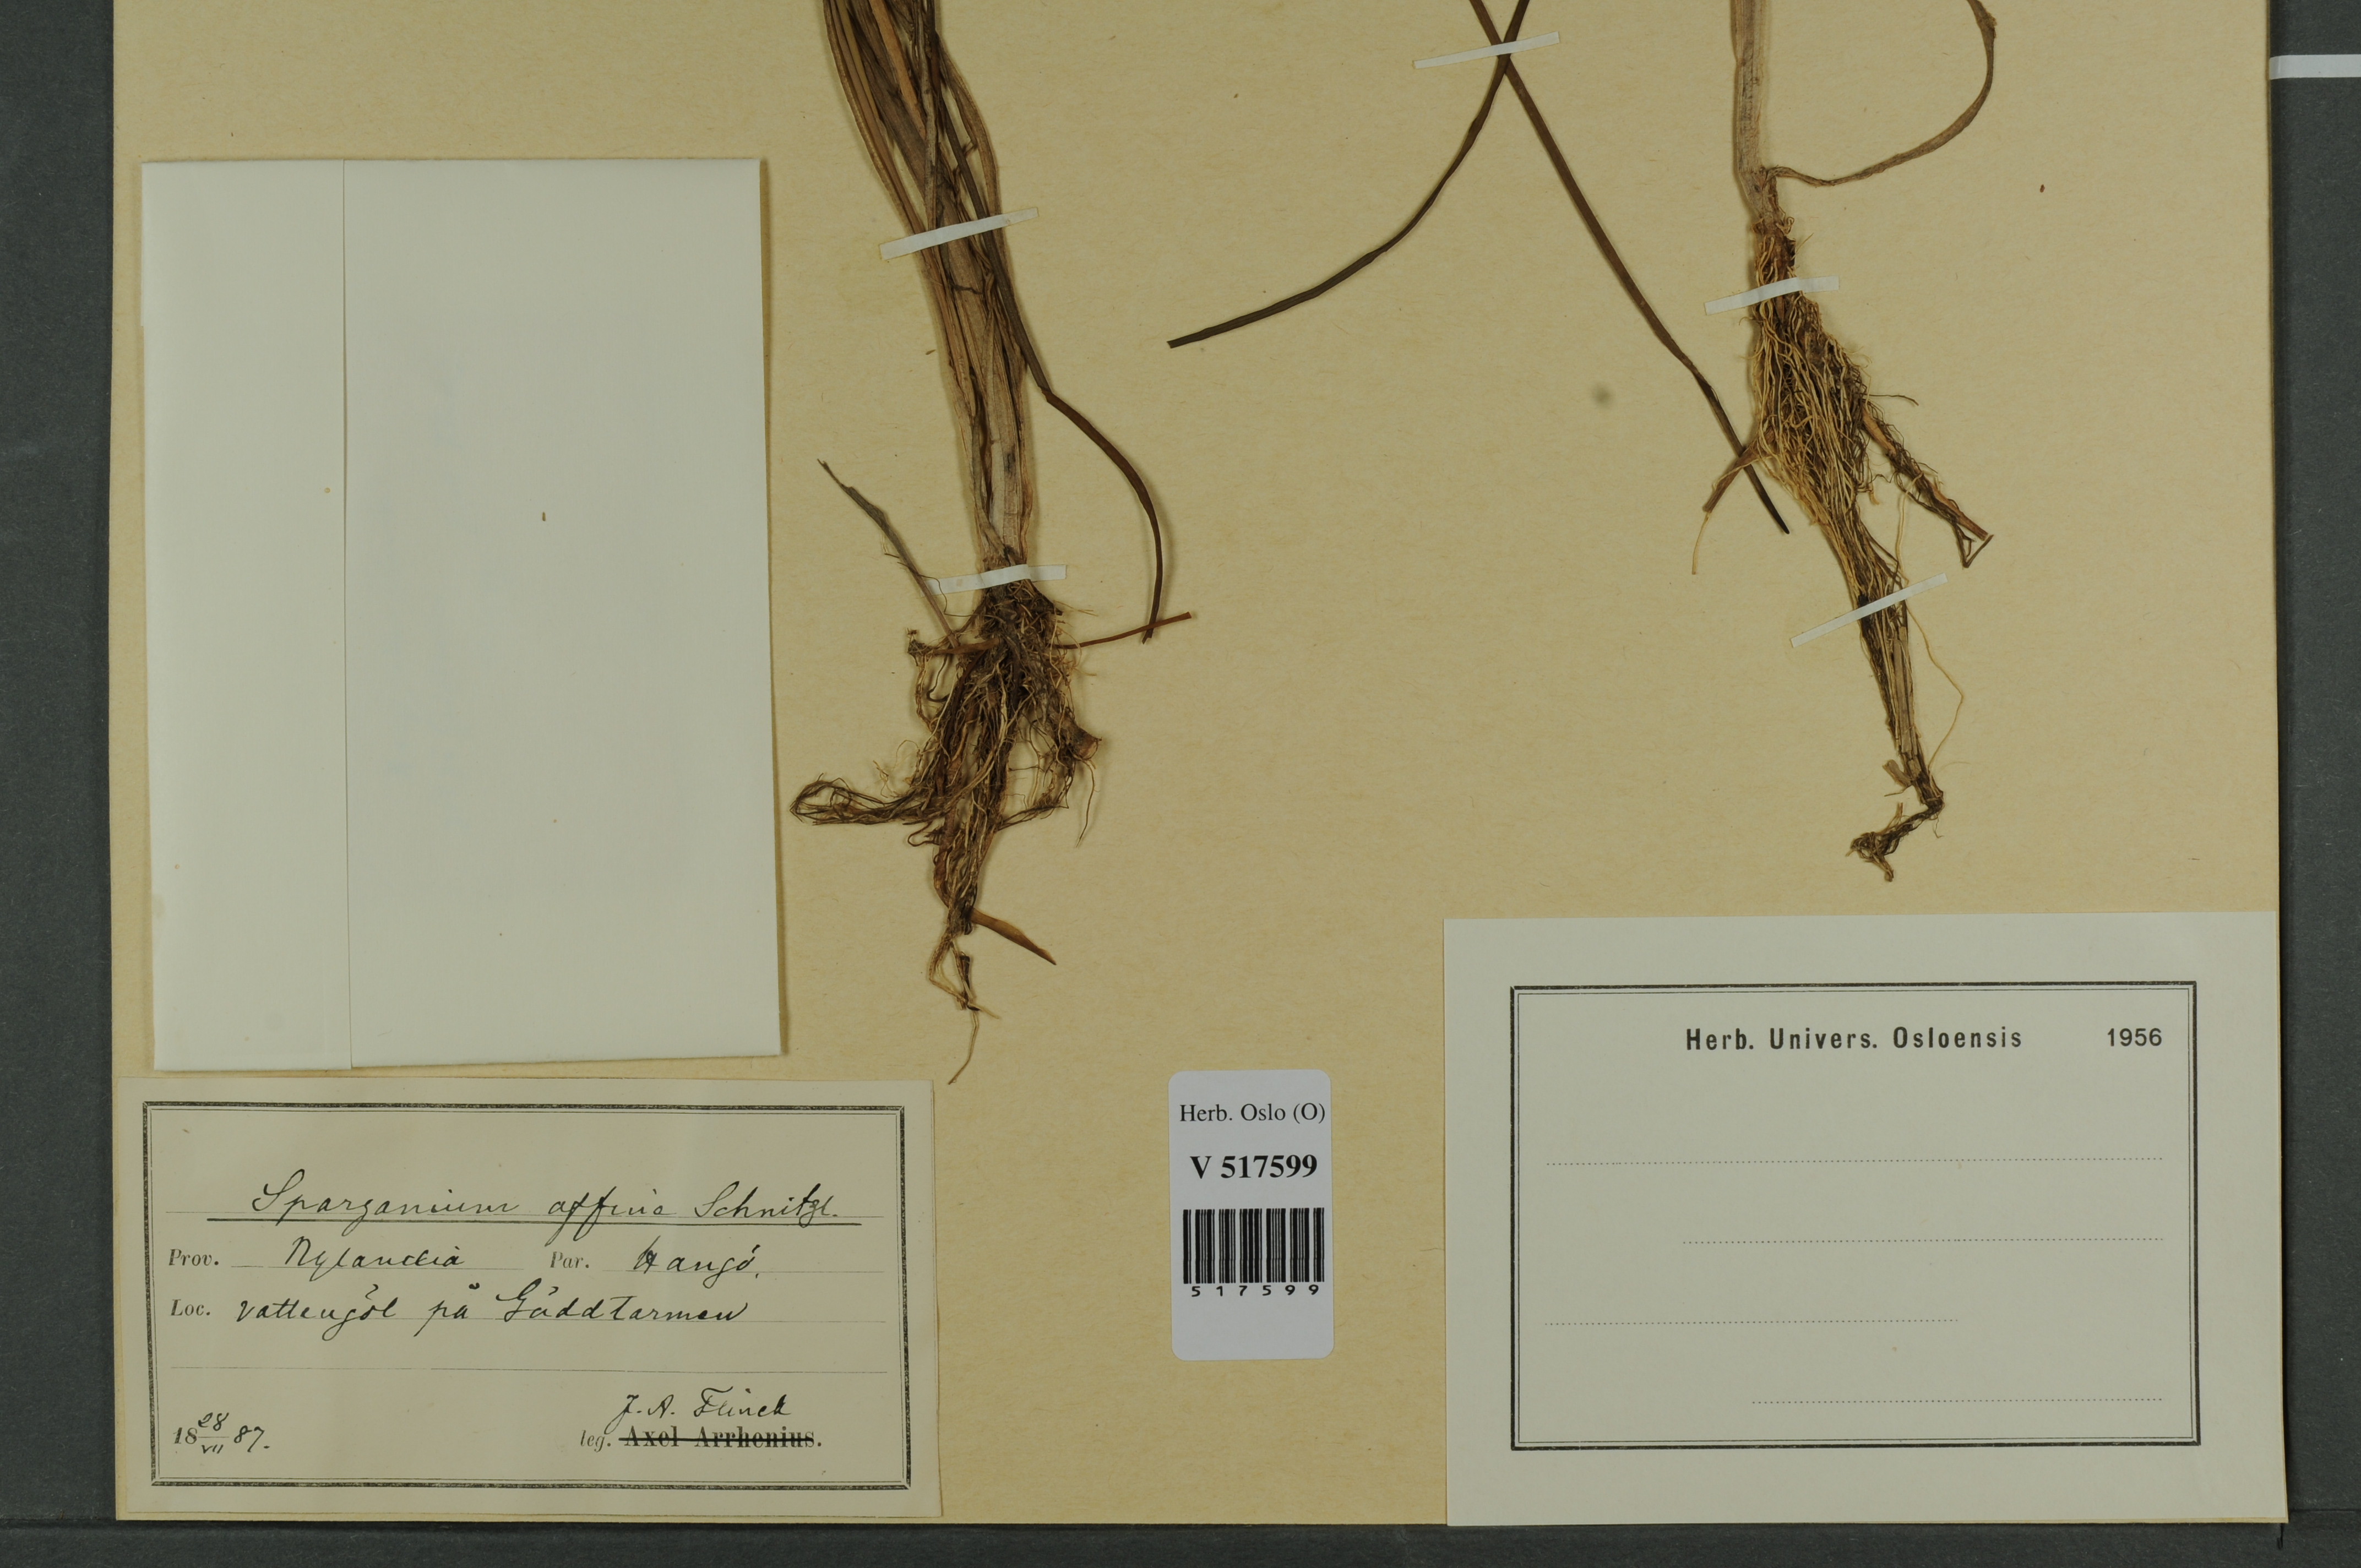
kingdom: Plantae
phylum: Tracheophyta
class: Liliopsida
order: Poales
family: Typhaceae
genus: Sparganium
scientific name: Sparganium angustifolium
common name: Floating bur-reed
